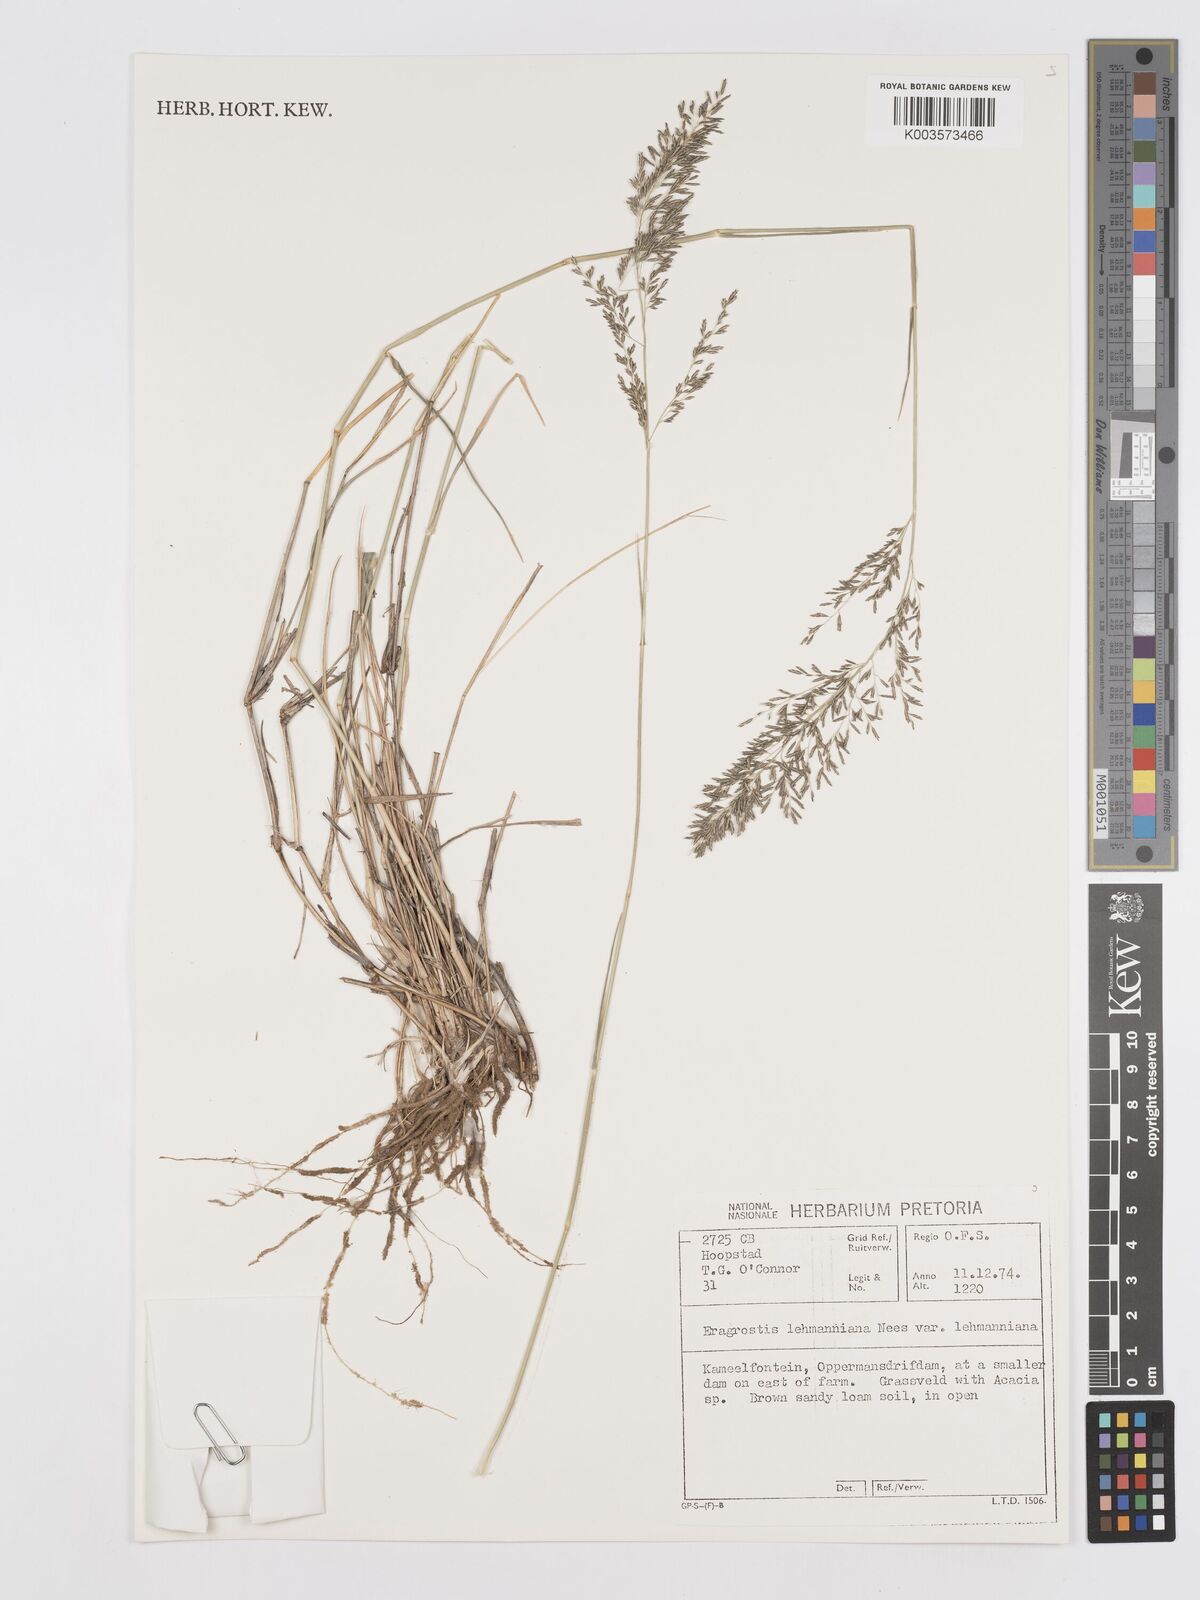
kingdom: Plantae
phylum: Tracheophyta
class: Liliopsida
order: Poales
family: Poaceae
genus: Eragrostis
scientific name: Eragrostis lehmanniana
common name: Lehmann lovegrass
